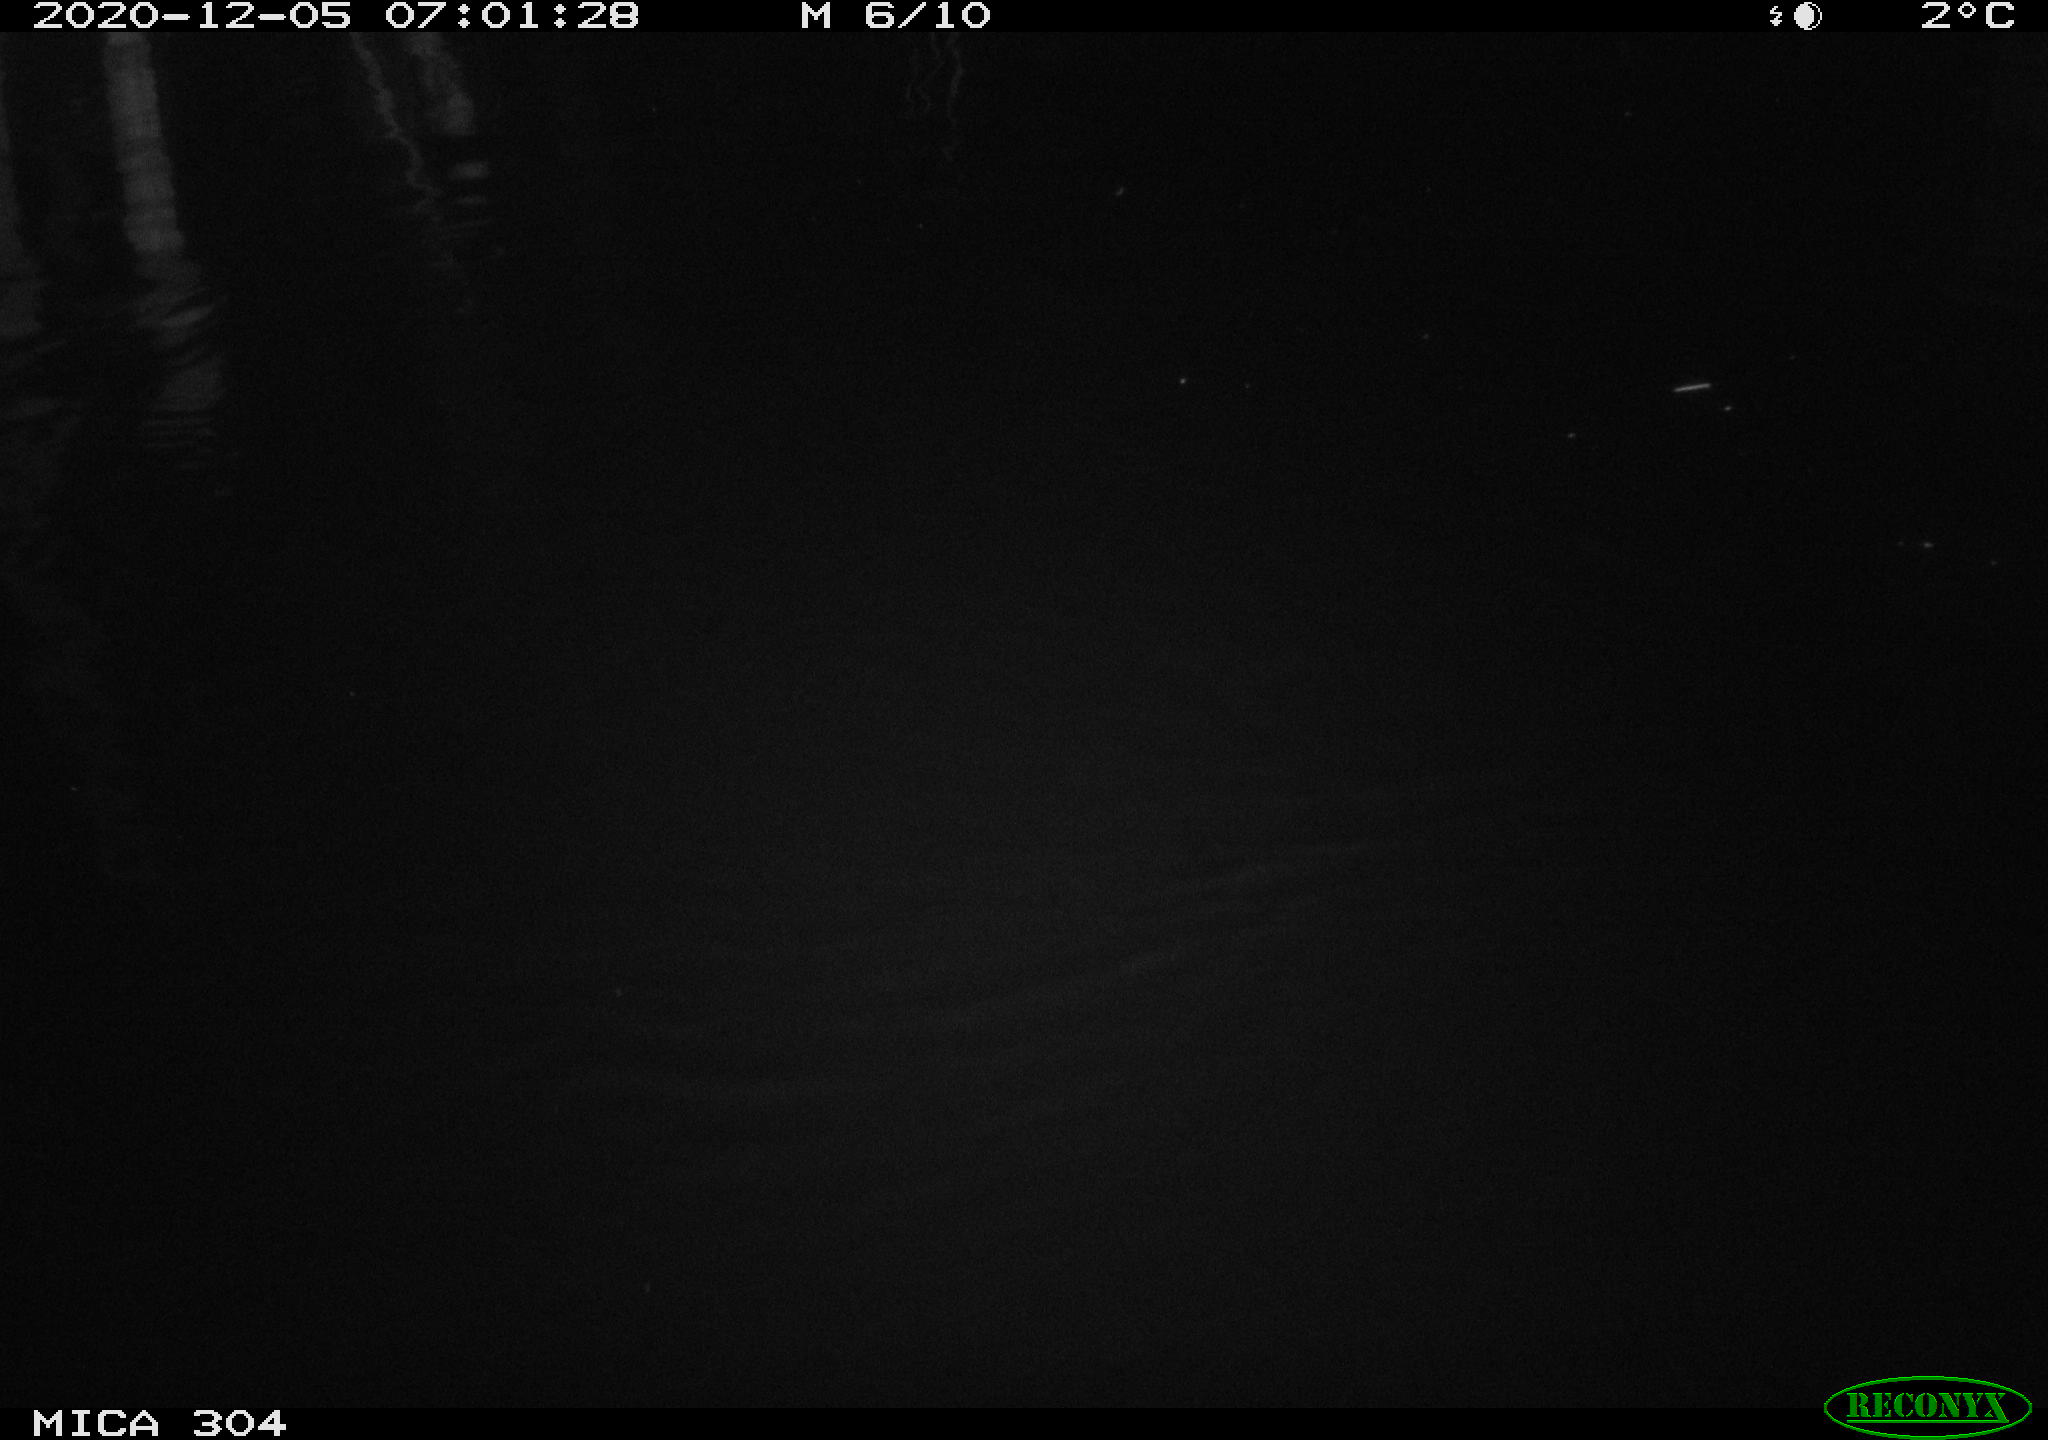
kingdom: Animalia
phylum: Chordata
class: Mammalia
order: Rodentia
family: Muridae
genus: Rattus
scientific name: Rattus norvegicus
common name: Brown rat
